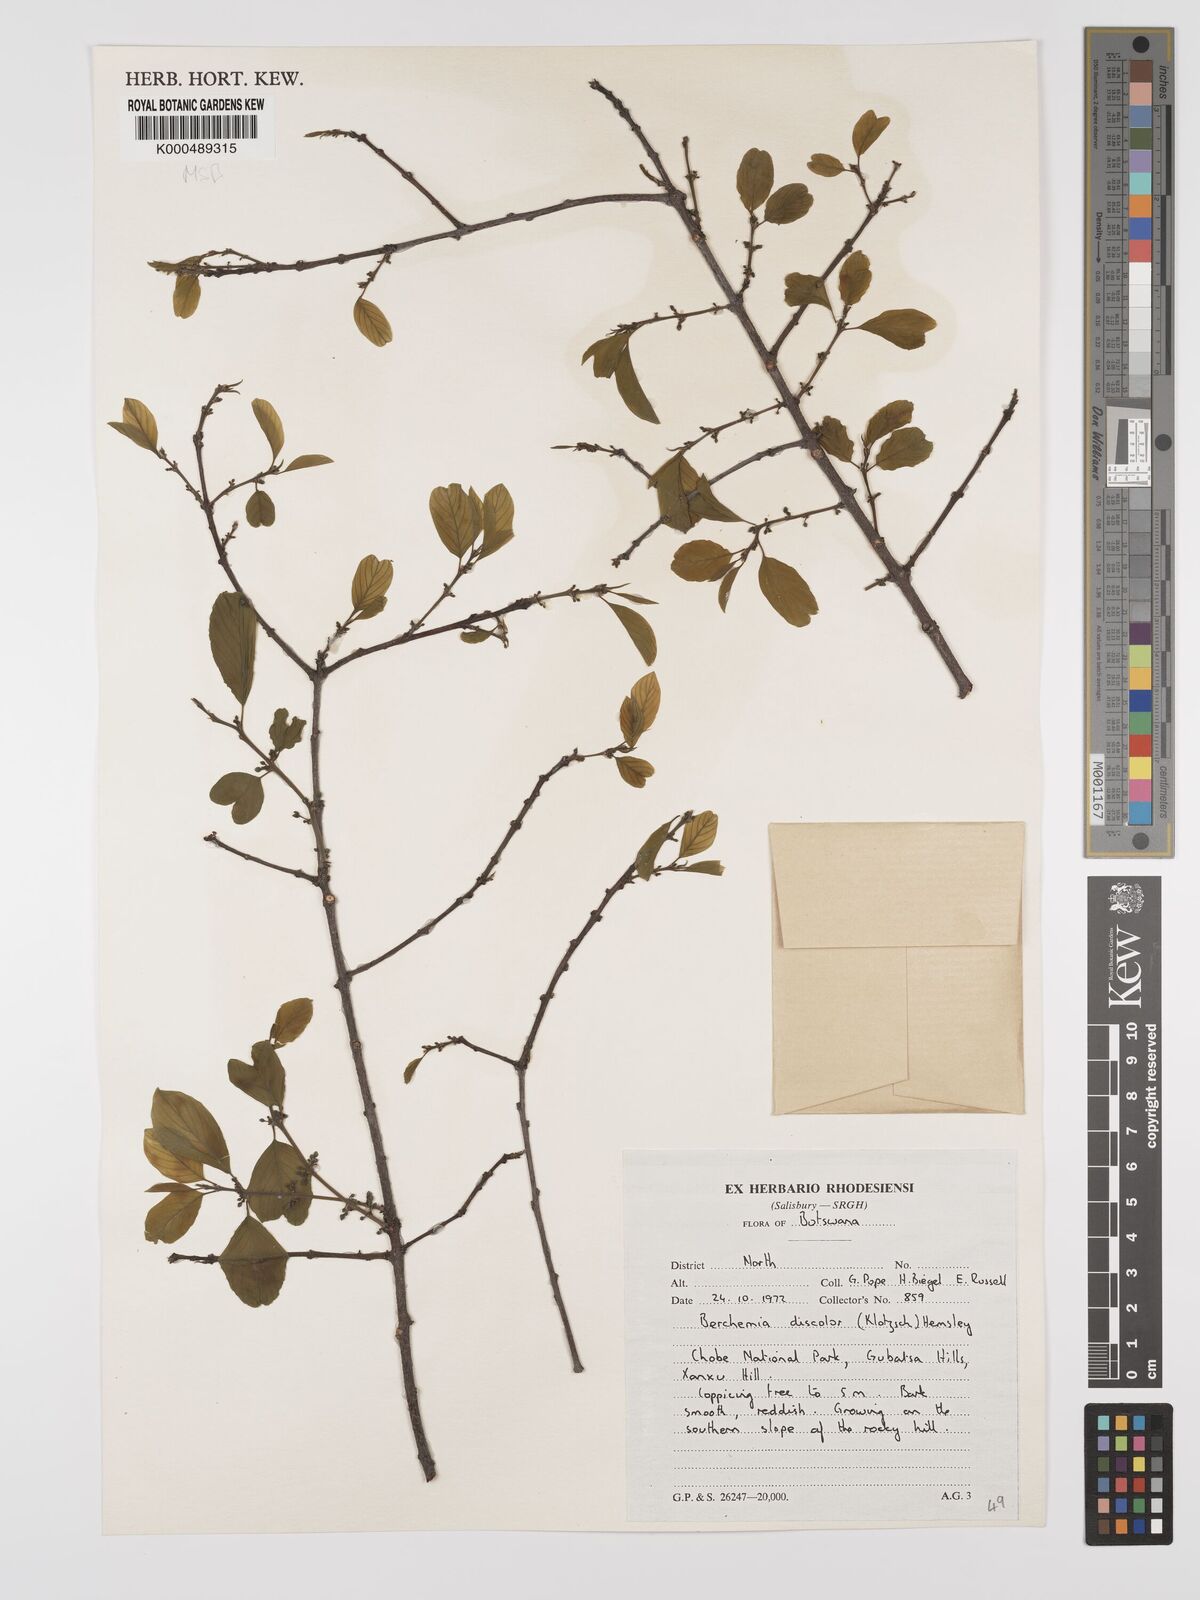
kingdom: Plantae
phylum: Tracheophyta
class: Magnoliopsida
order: Rosales
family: Rhamnaceae
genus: Phyllogeiton
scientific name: Phyllogeiton discolor
